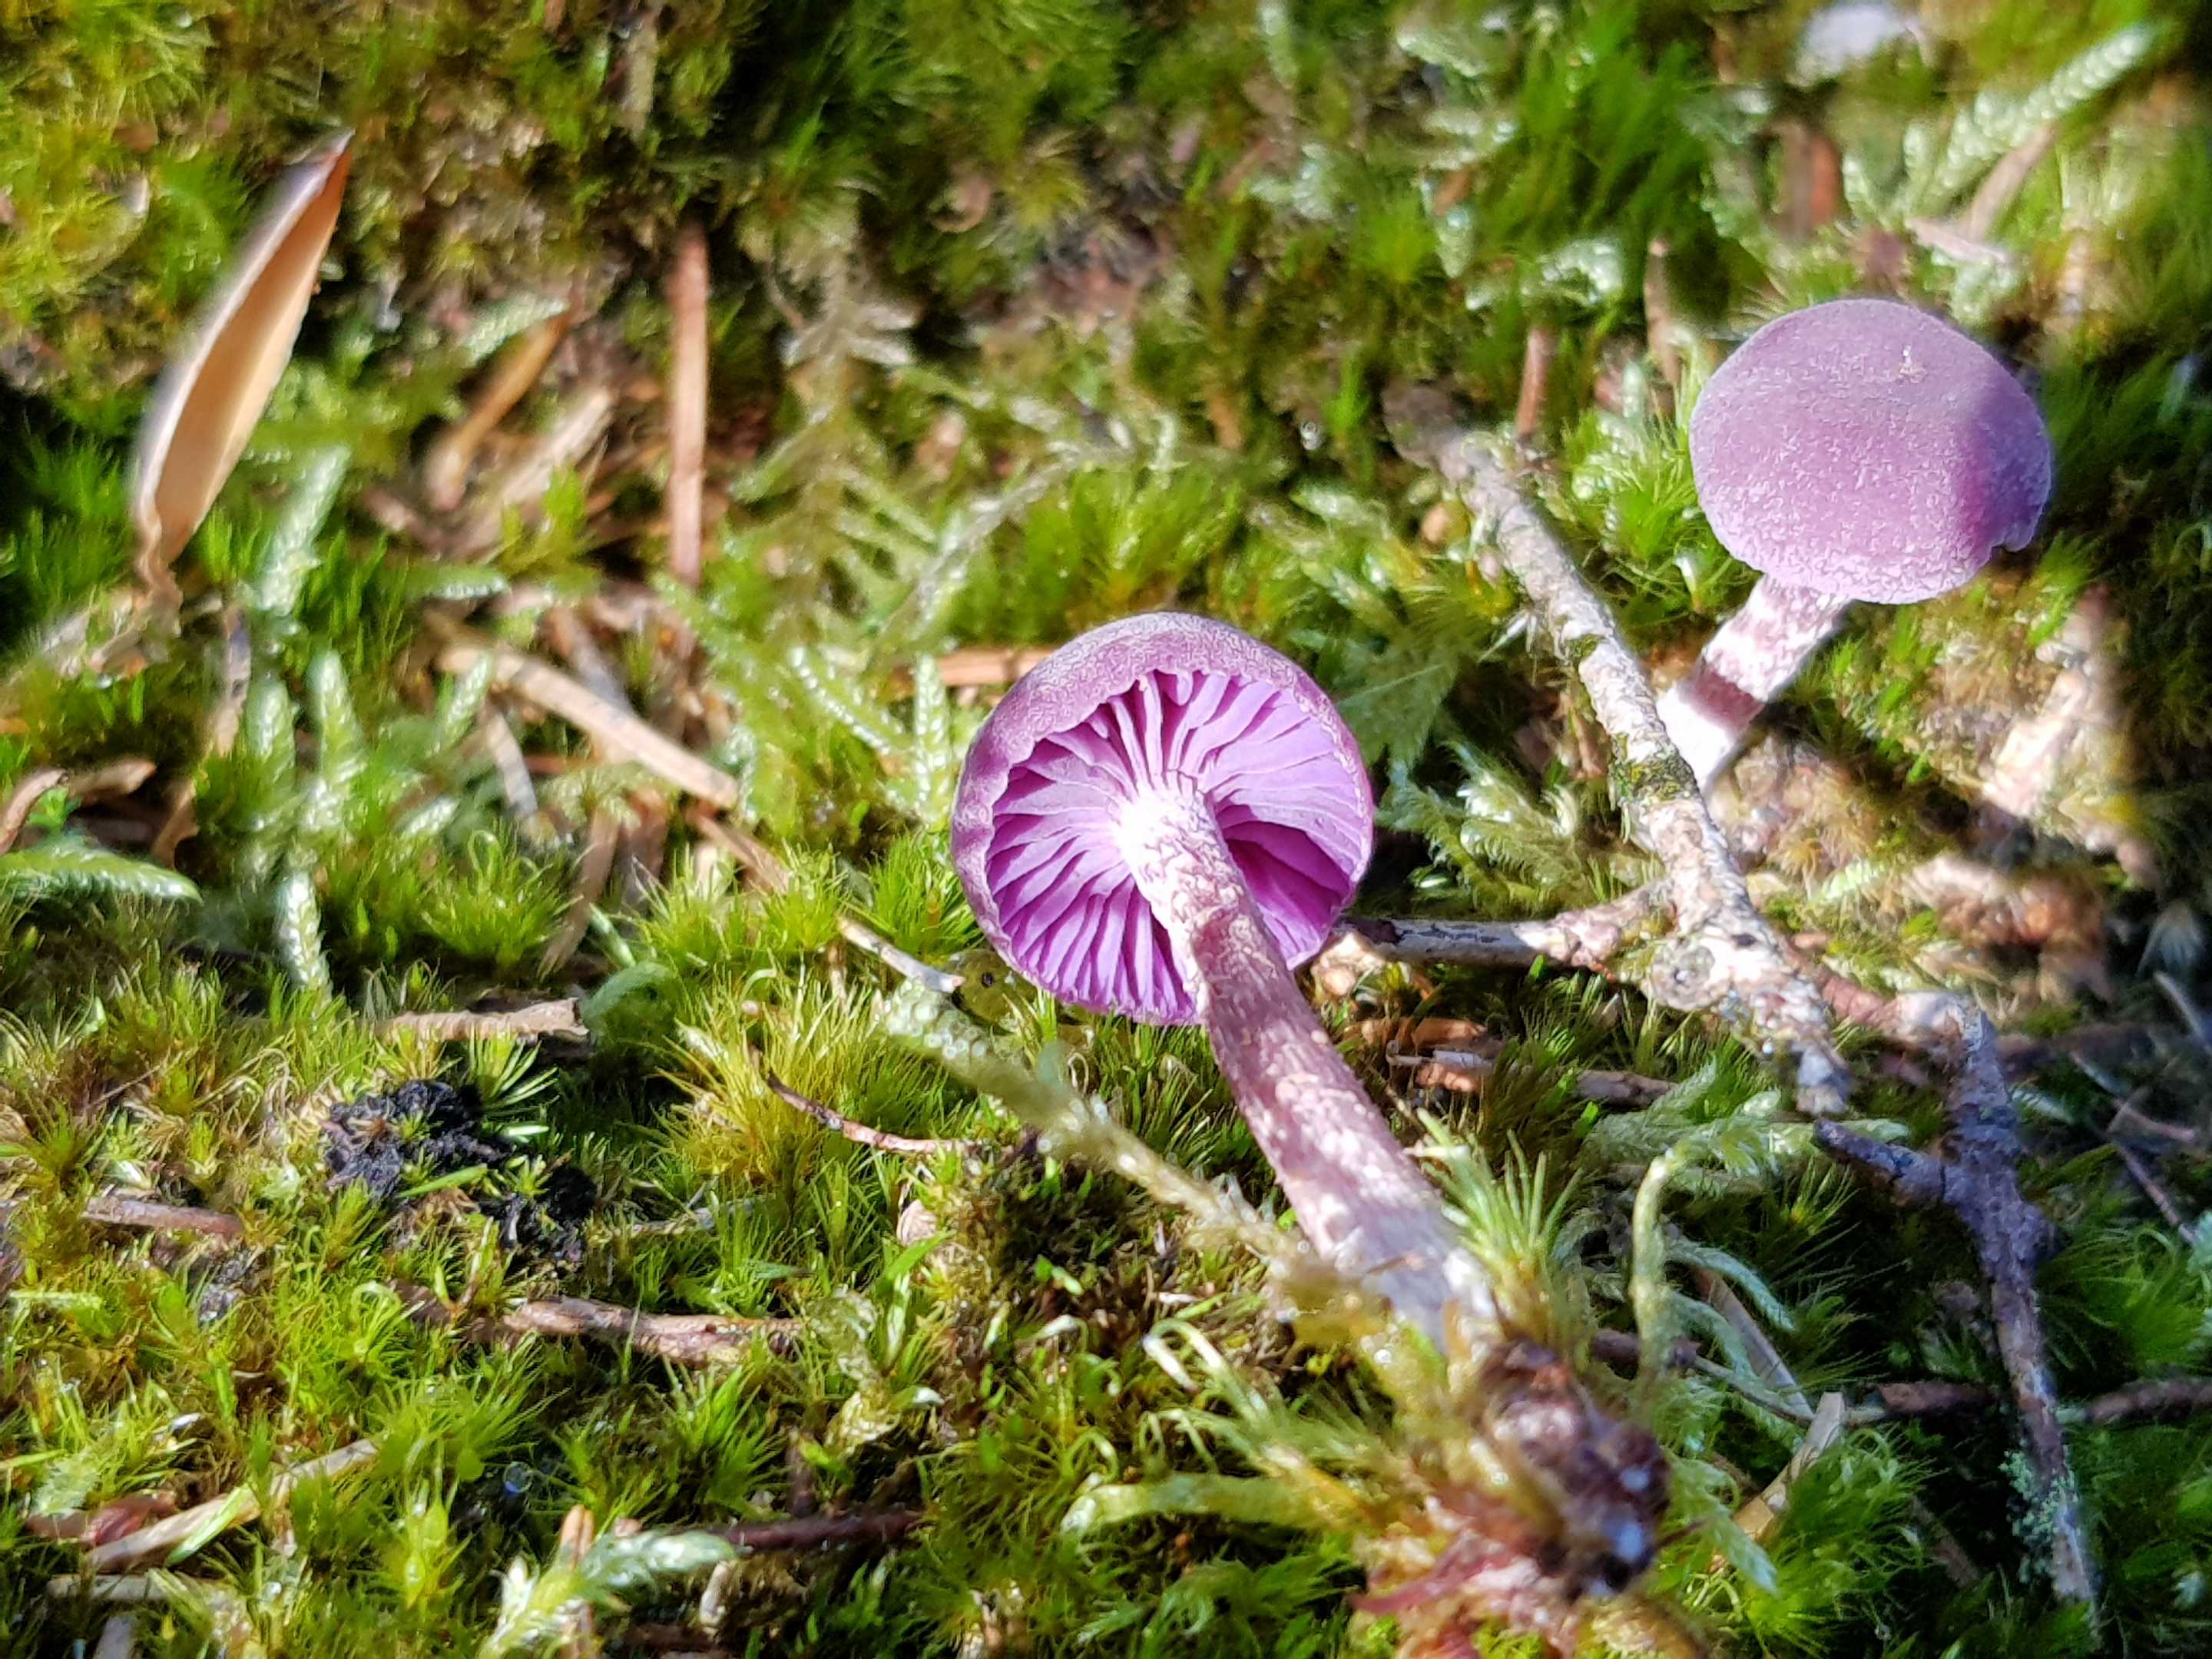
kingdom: Fungi
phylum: Basidiomycota
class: Agaricomycetes
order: Agaricales
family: Hydnangiaceae
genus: Laccaria
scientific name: Laccaria amethystina
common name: violet ametysthat
